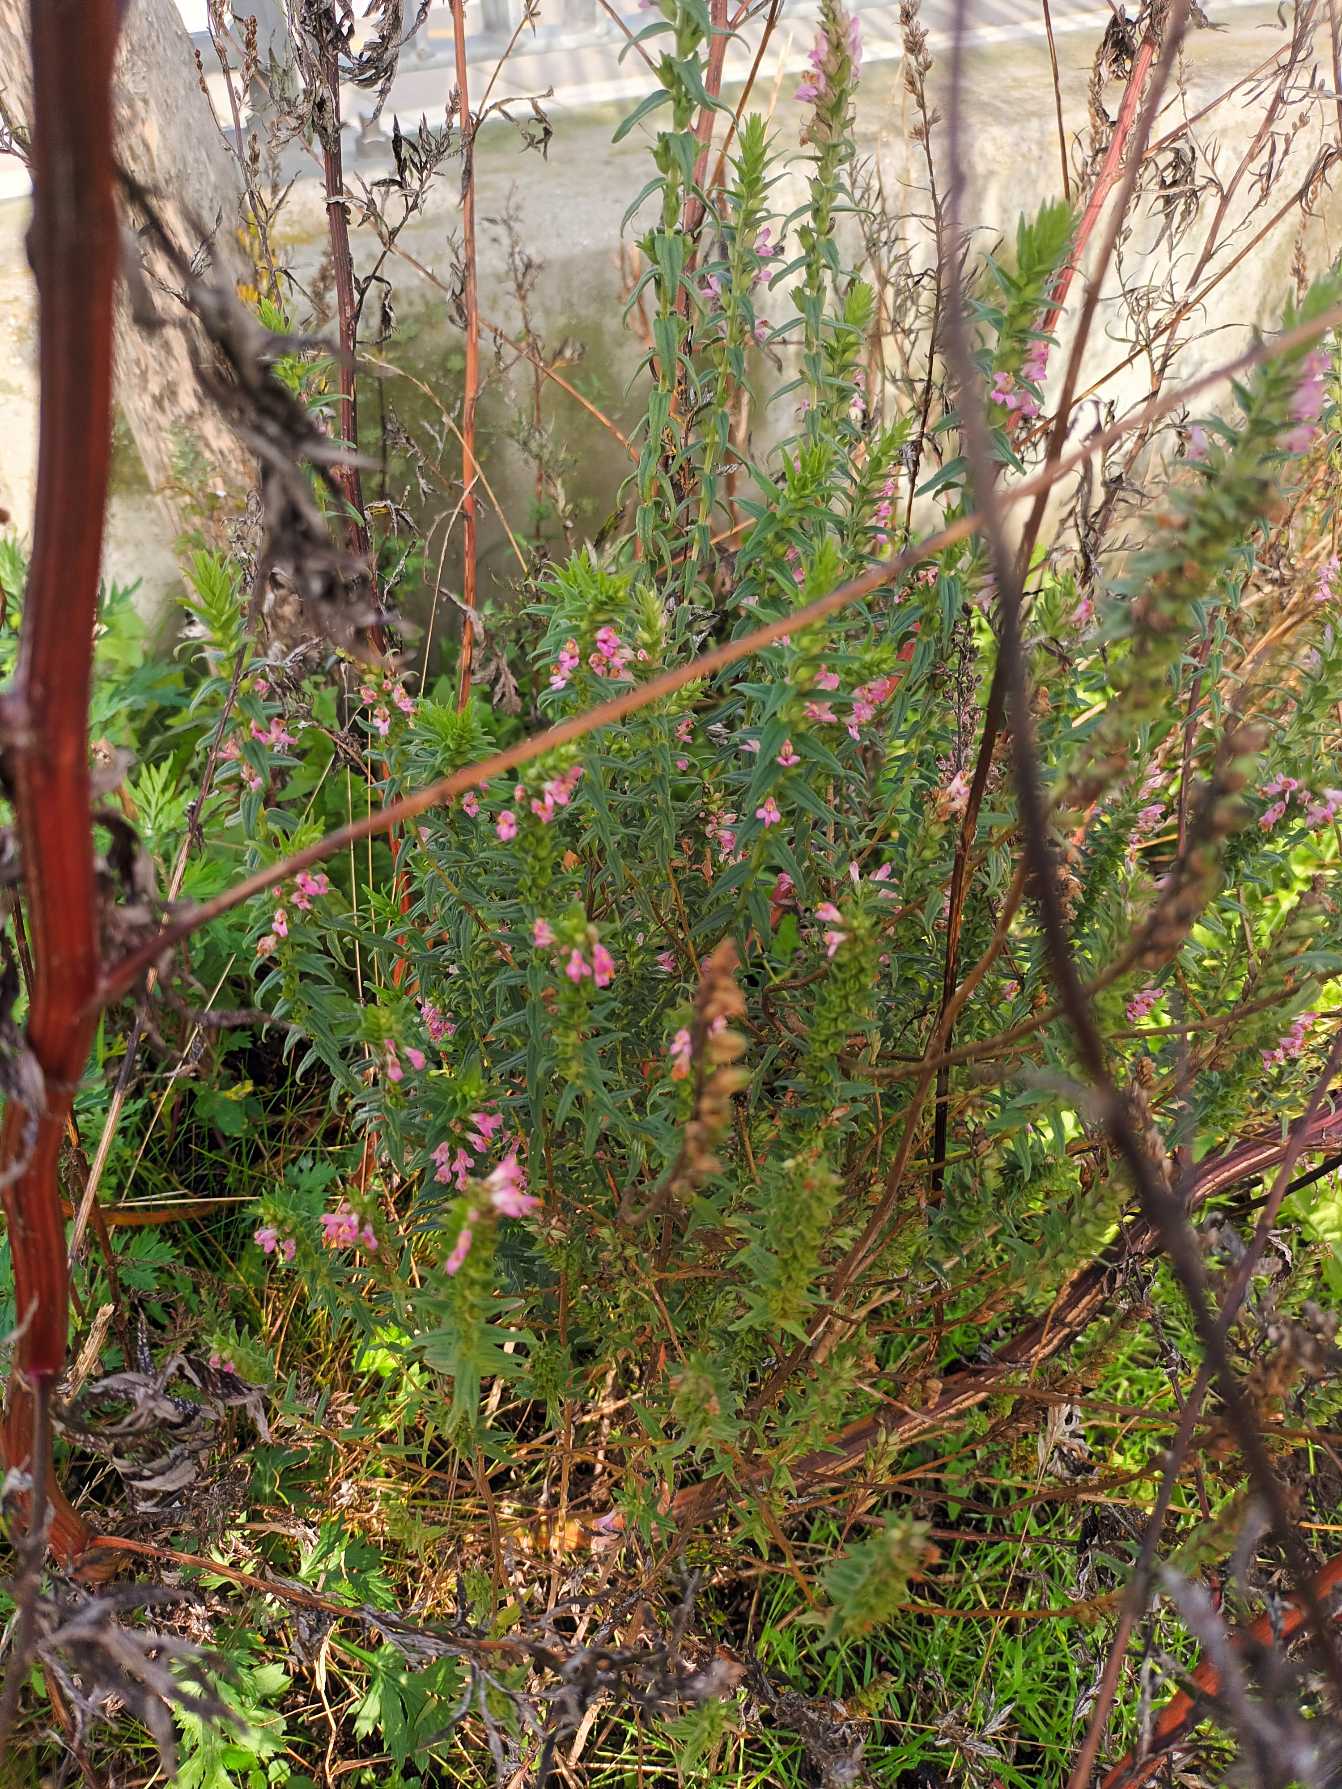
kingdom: Plantae
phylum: Tracheophyta
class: Magnoliopsida
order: Lamiales
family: Orobanchaceae
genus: Odontites
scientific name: Odontites vulgaris
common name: Høst-rødtop
